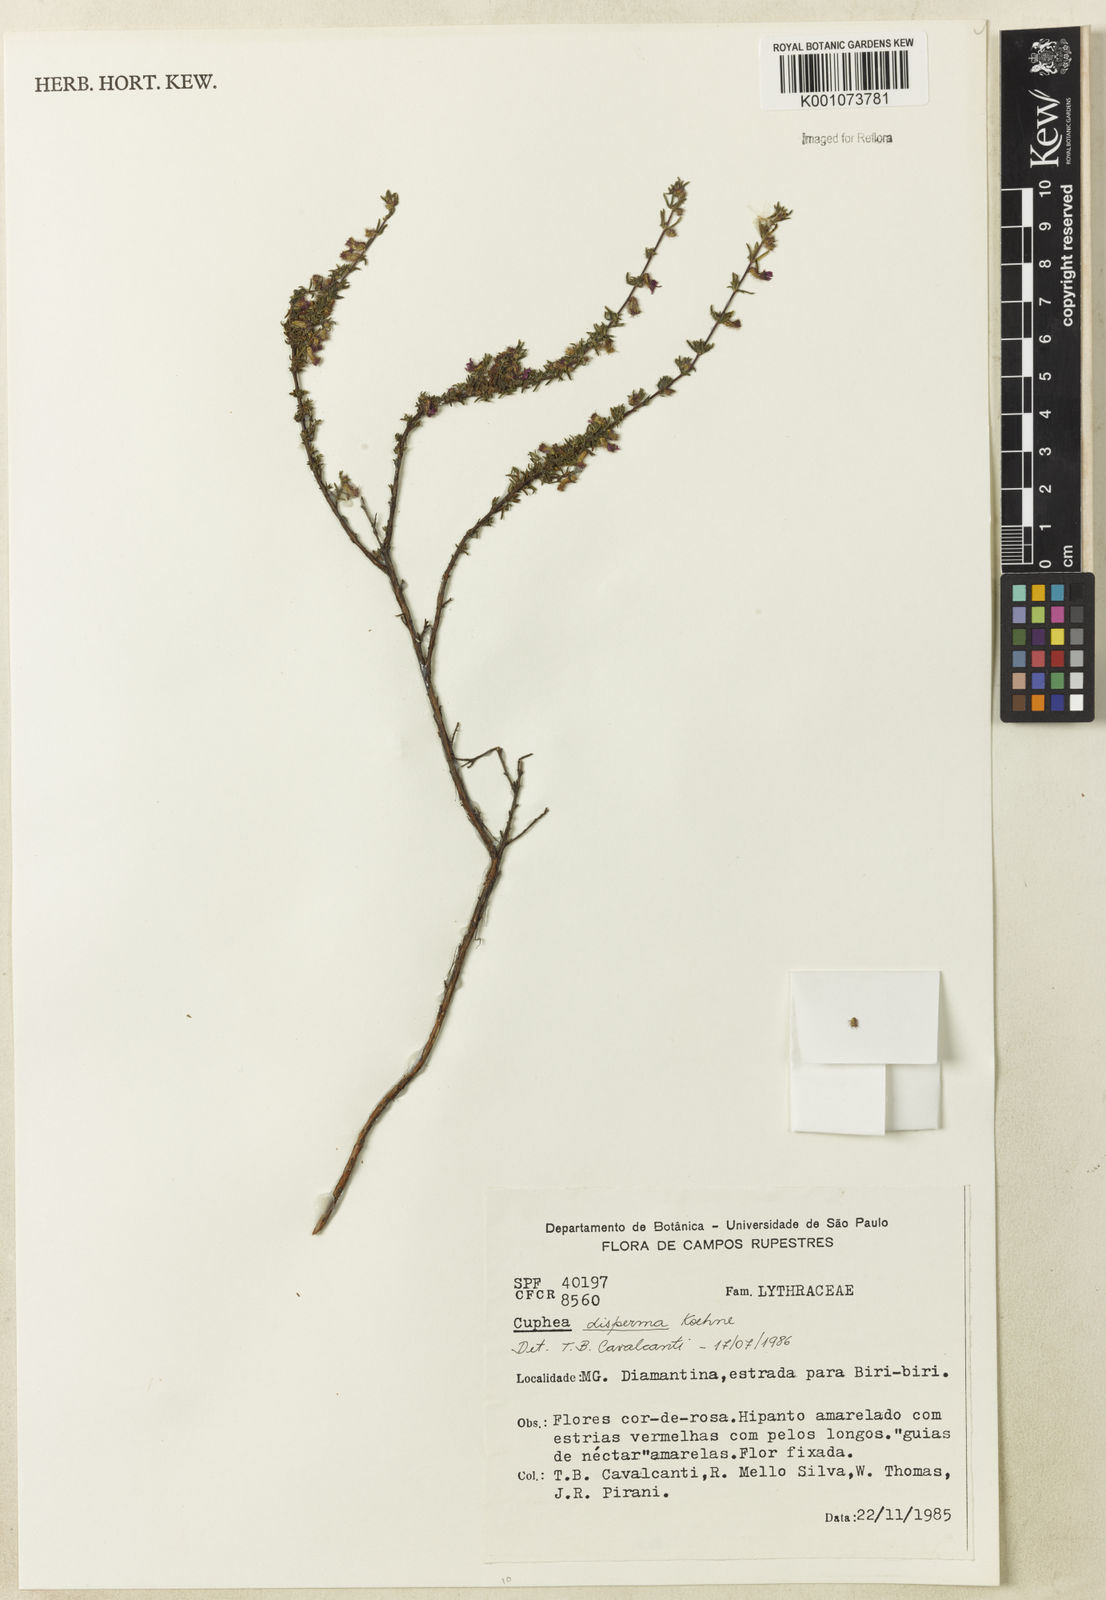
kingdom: Plantae
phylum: Tracheophyta
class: Magnoliopsida
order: Myrtales
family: Lythraceae
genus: Cuphea
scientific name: Cuphea disperma
